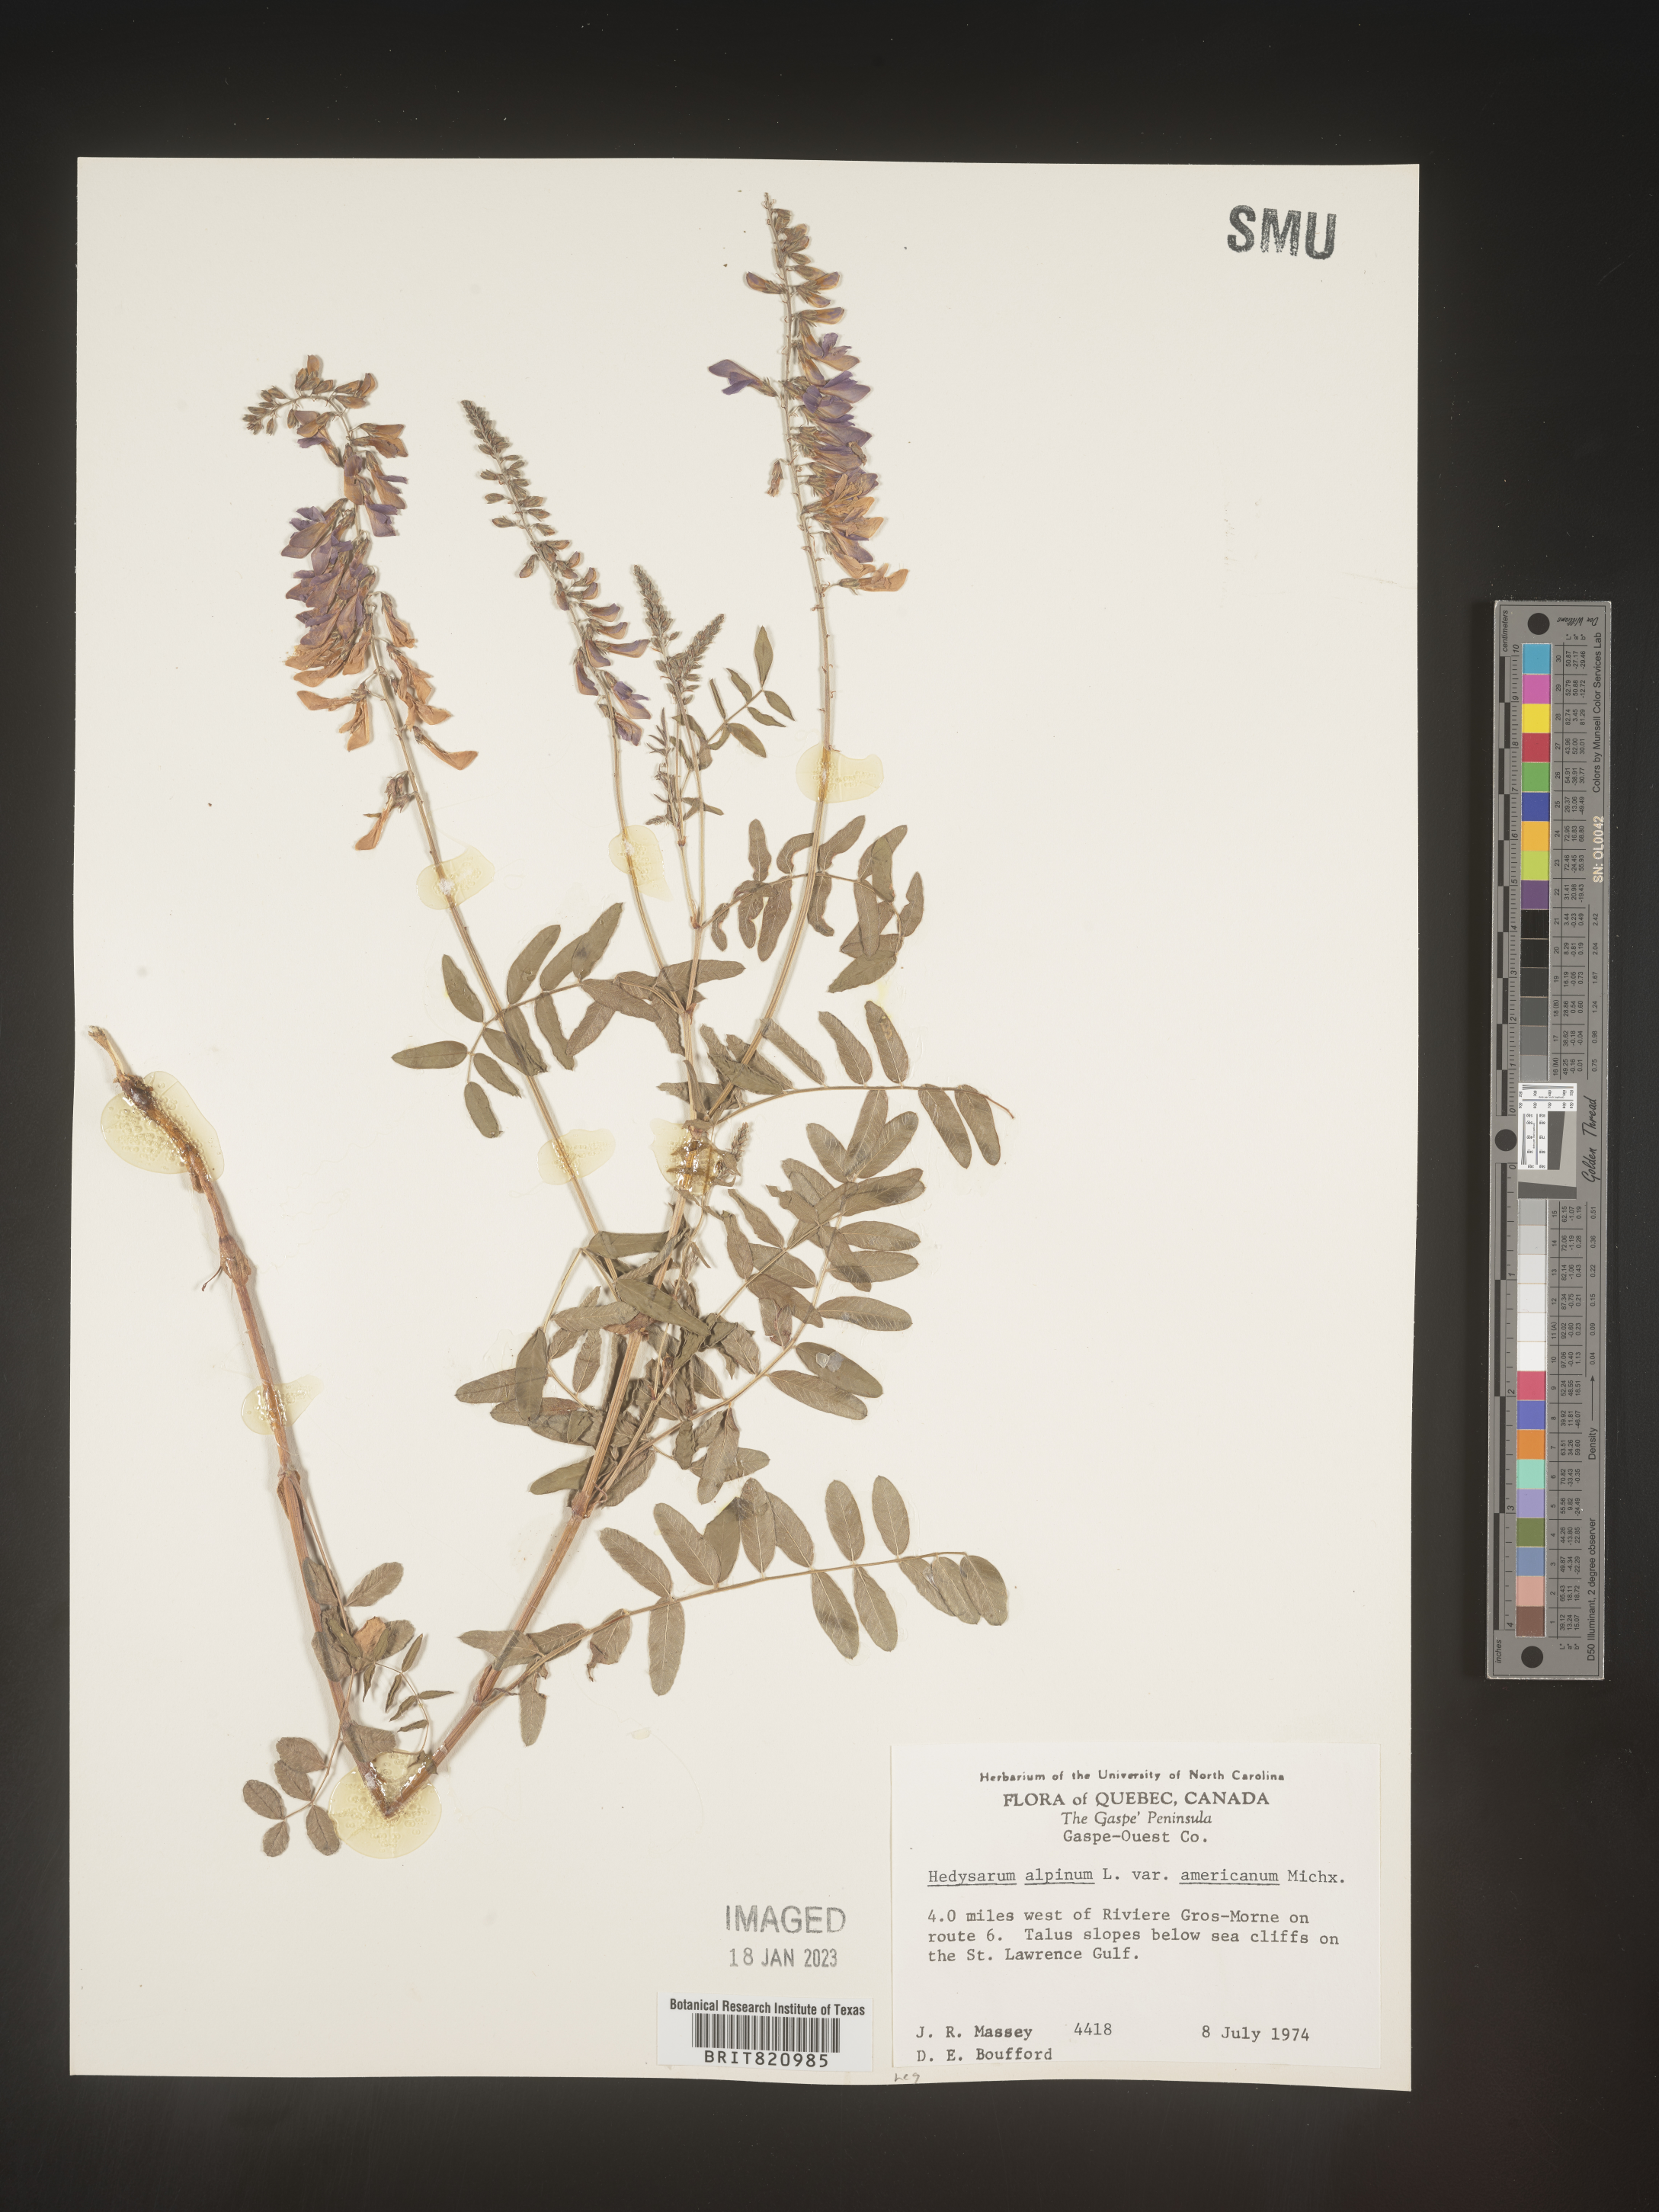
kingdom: Plantae
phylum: Tracheophyta
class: Magnoliopsida
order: Fabales
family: Fabaceae
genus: Hedysarum
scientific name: Hedysarum alpinum
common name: Alpine sweet-vetch
